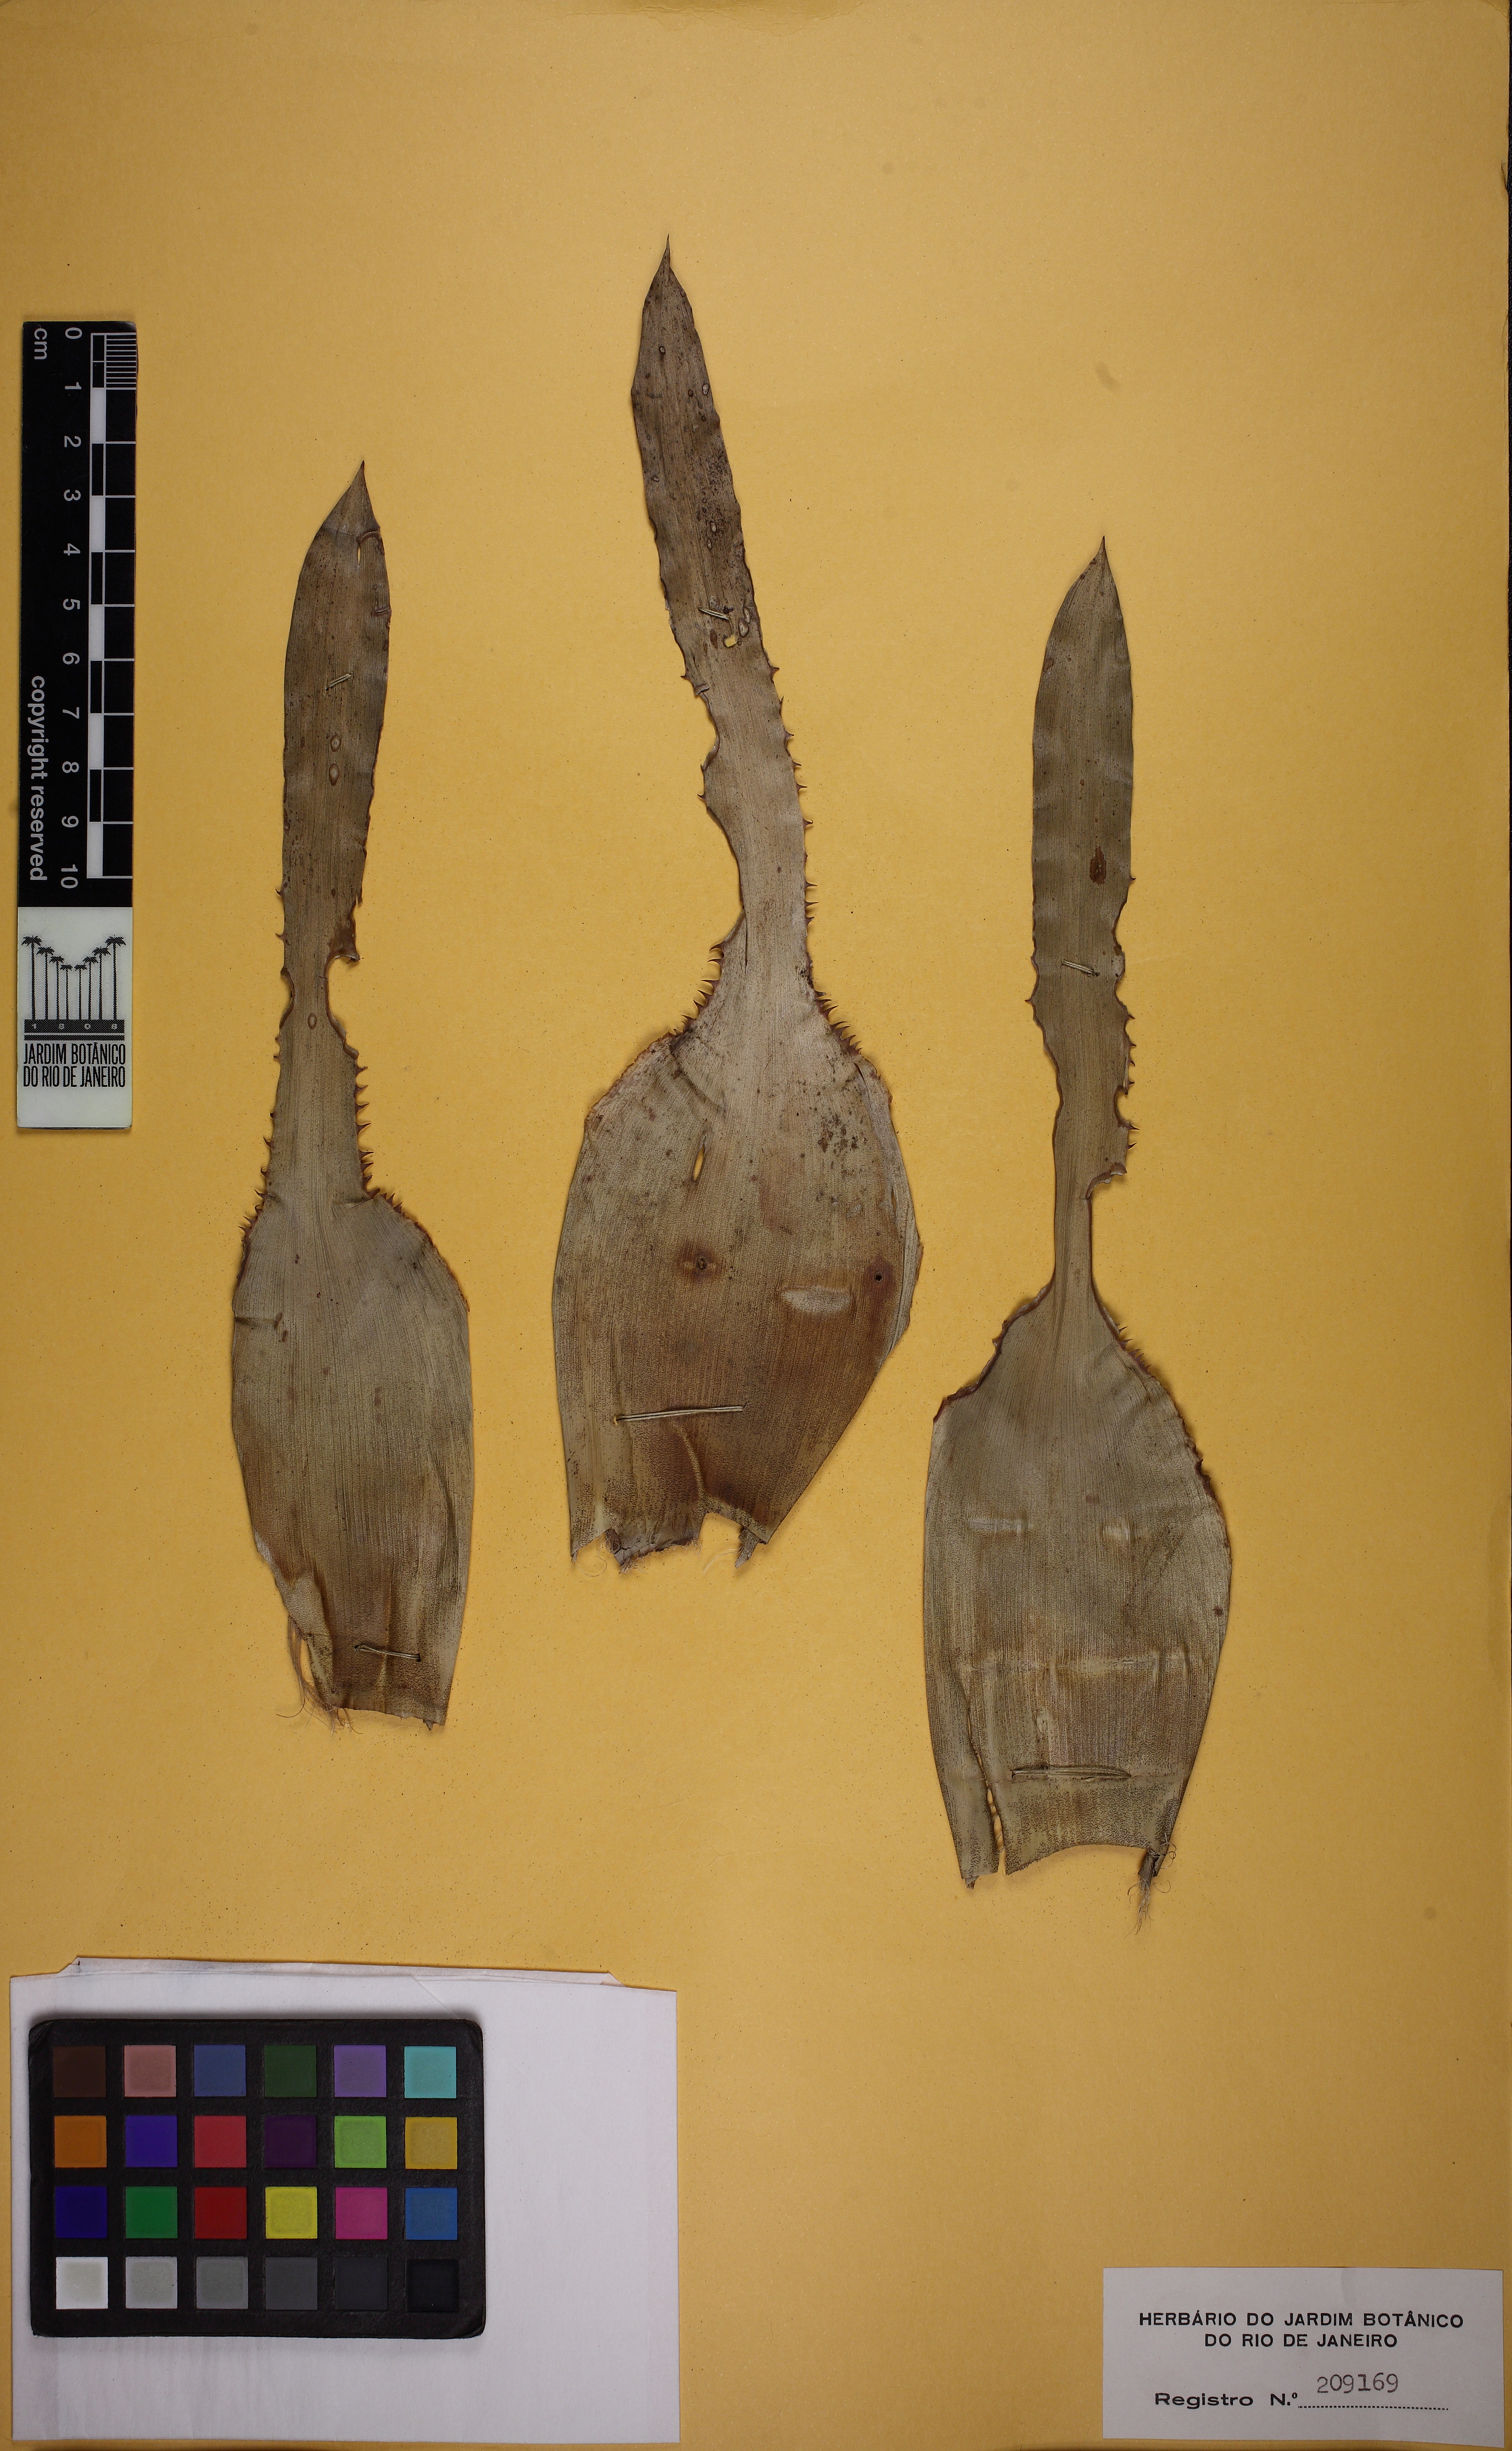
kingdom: Plantae
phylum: Tracheophyta
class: Liliopsida
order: Poales
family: Bromeliaceae
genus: Aechmea
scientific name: Aechmea azurea
